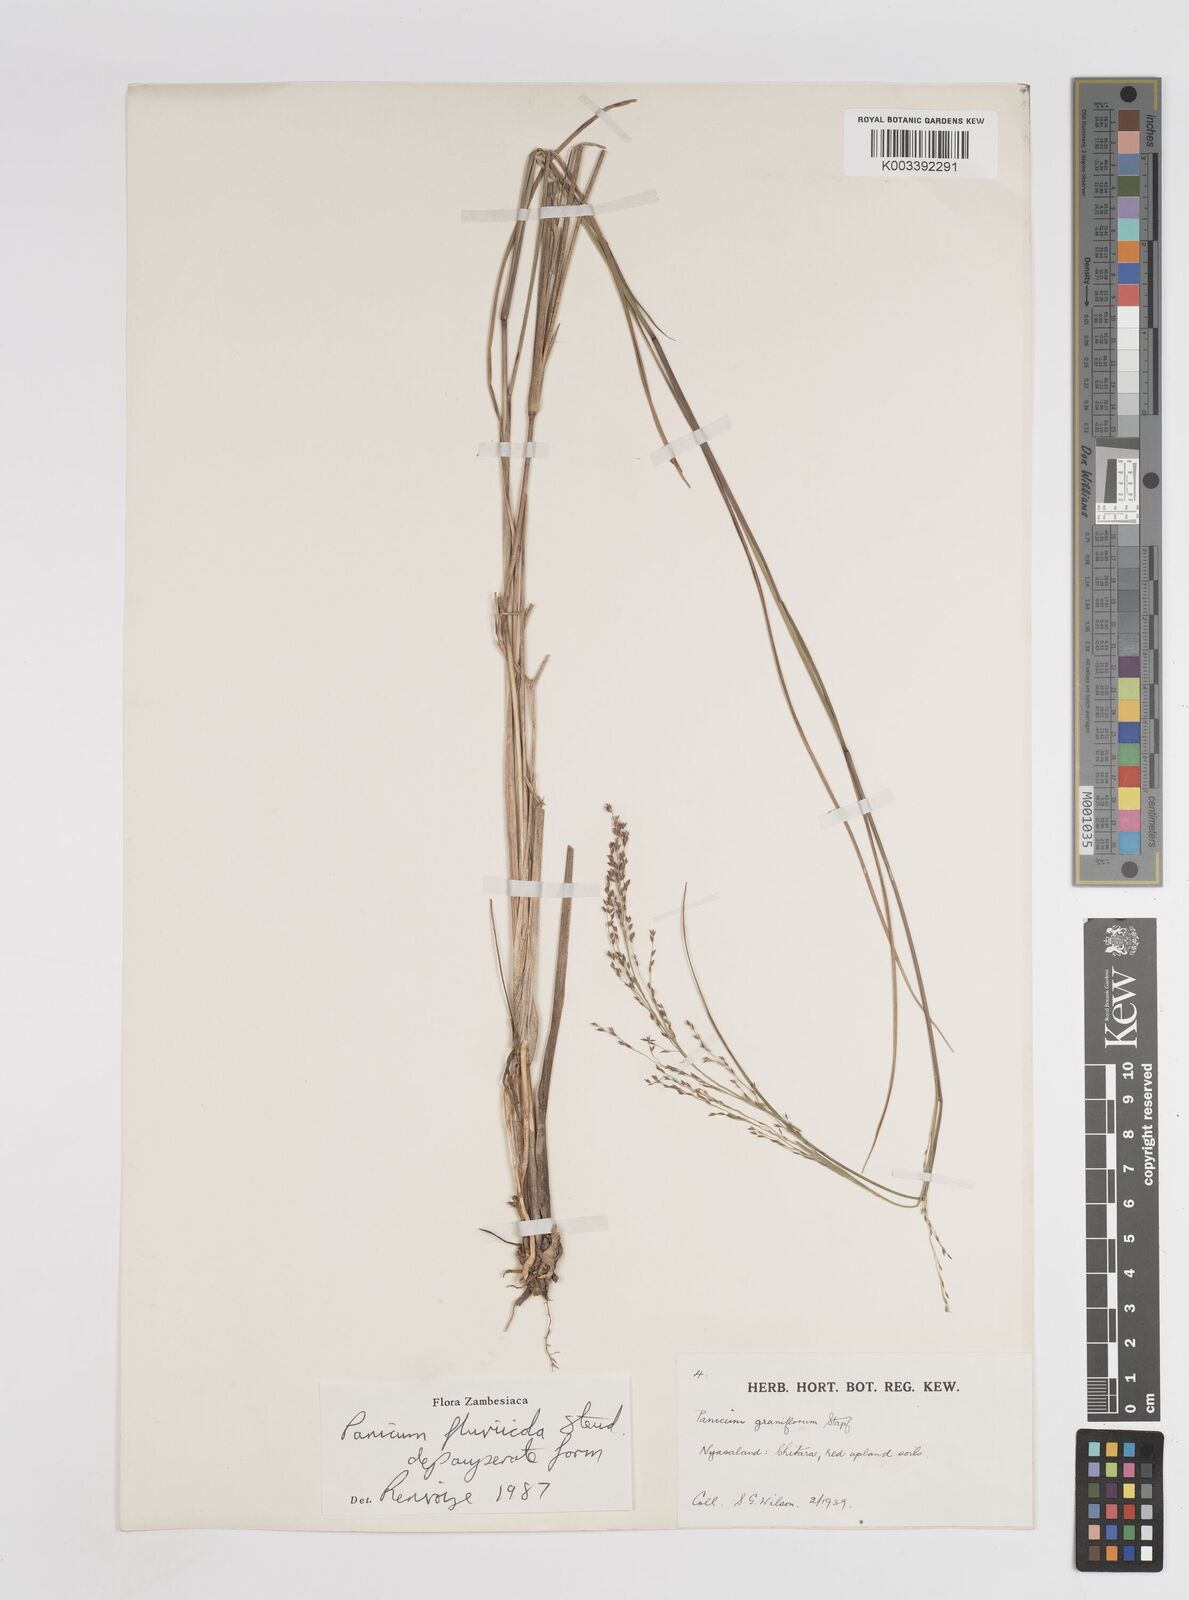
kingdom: Plantae
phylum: Tracheophyta
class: Liliopsida
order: Poales
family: Poaceae
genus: Panicum
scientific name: Panicum fluviicola
